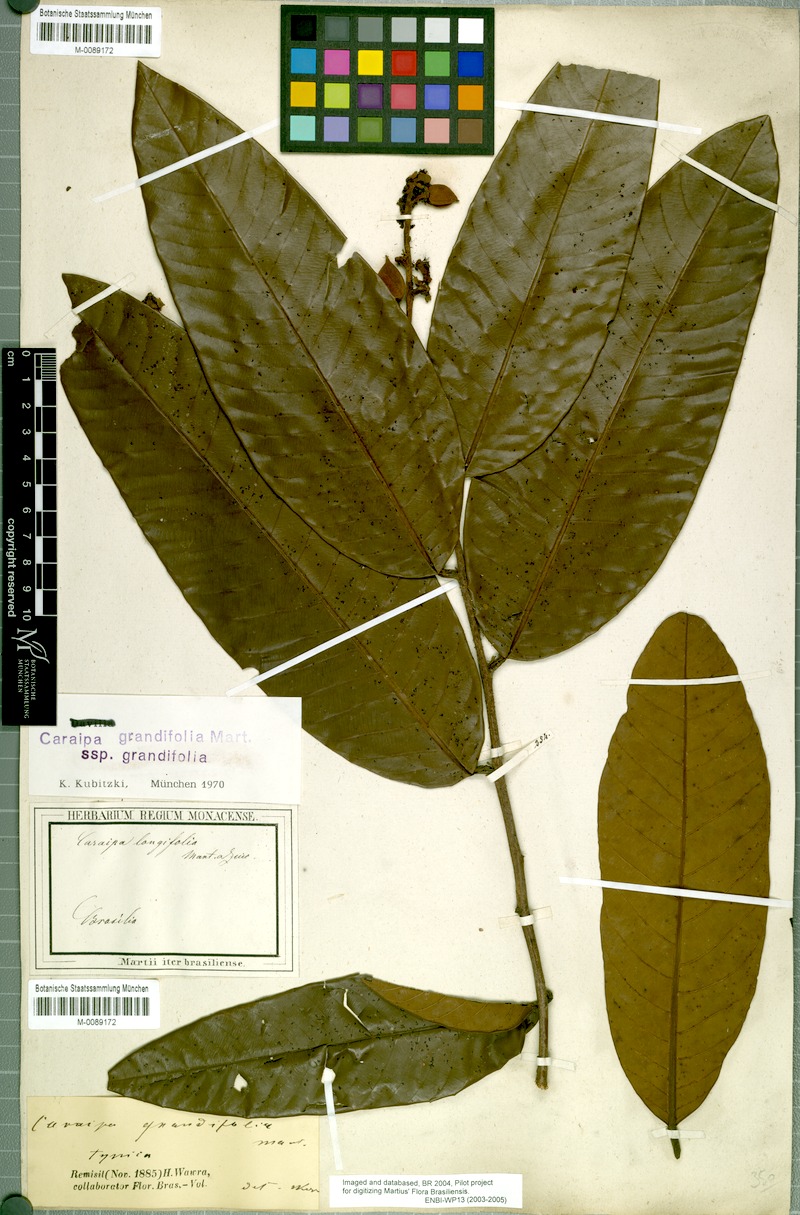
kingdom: Plantae
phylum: Tracheophyta
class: Magnoliopsida
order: Malpighiales
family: Calophyllaceae
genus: Caraipa
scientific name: Caraipa grandifolia
